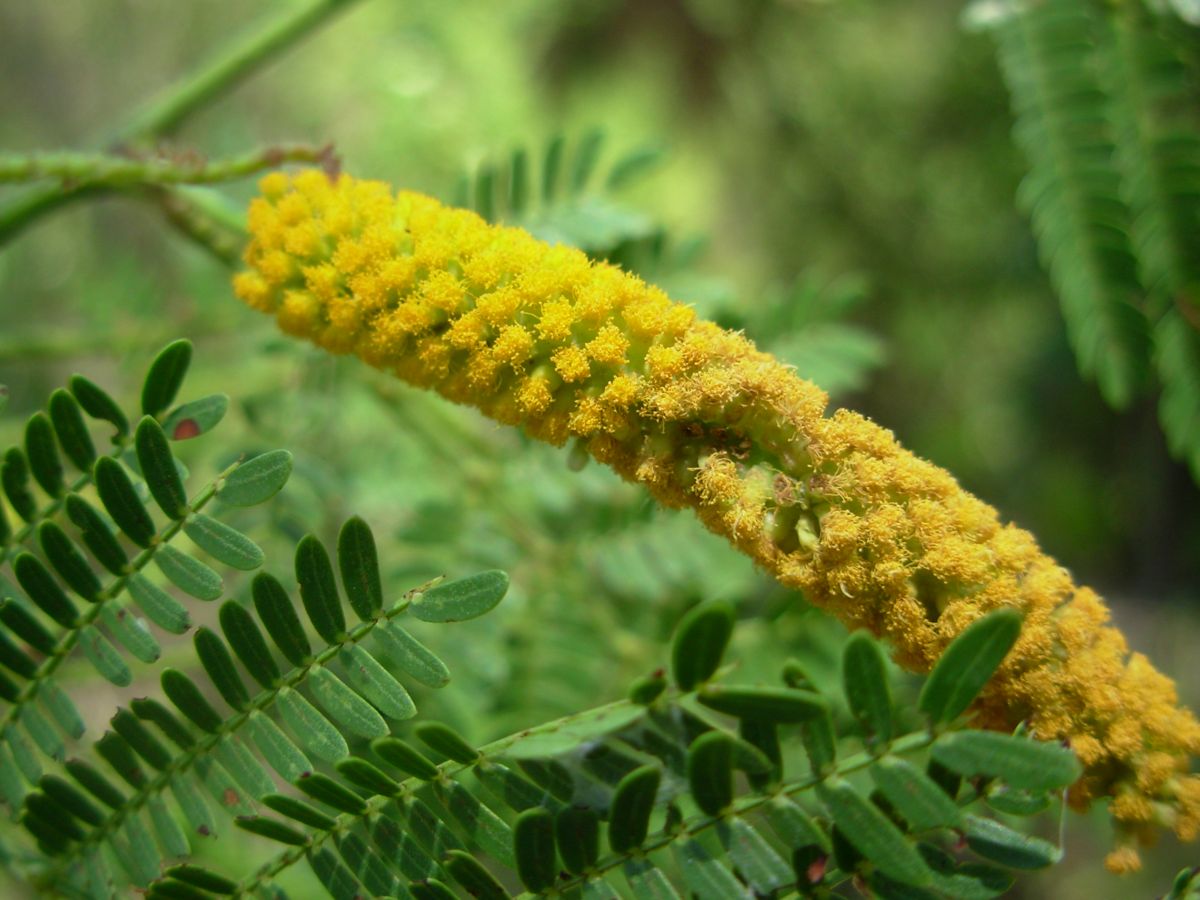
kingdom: Plantae
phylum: Tracheophyta
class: Magnoliopsida
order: Fabales
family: Fabaceae
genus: Vachellia
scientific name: Vachellia hindsii
